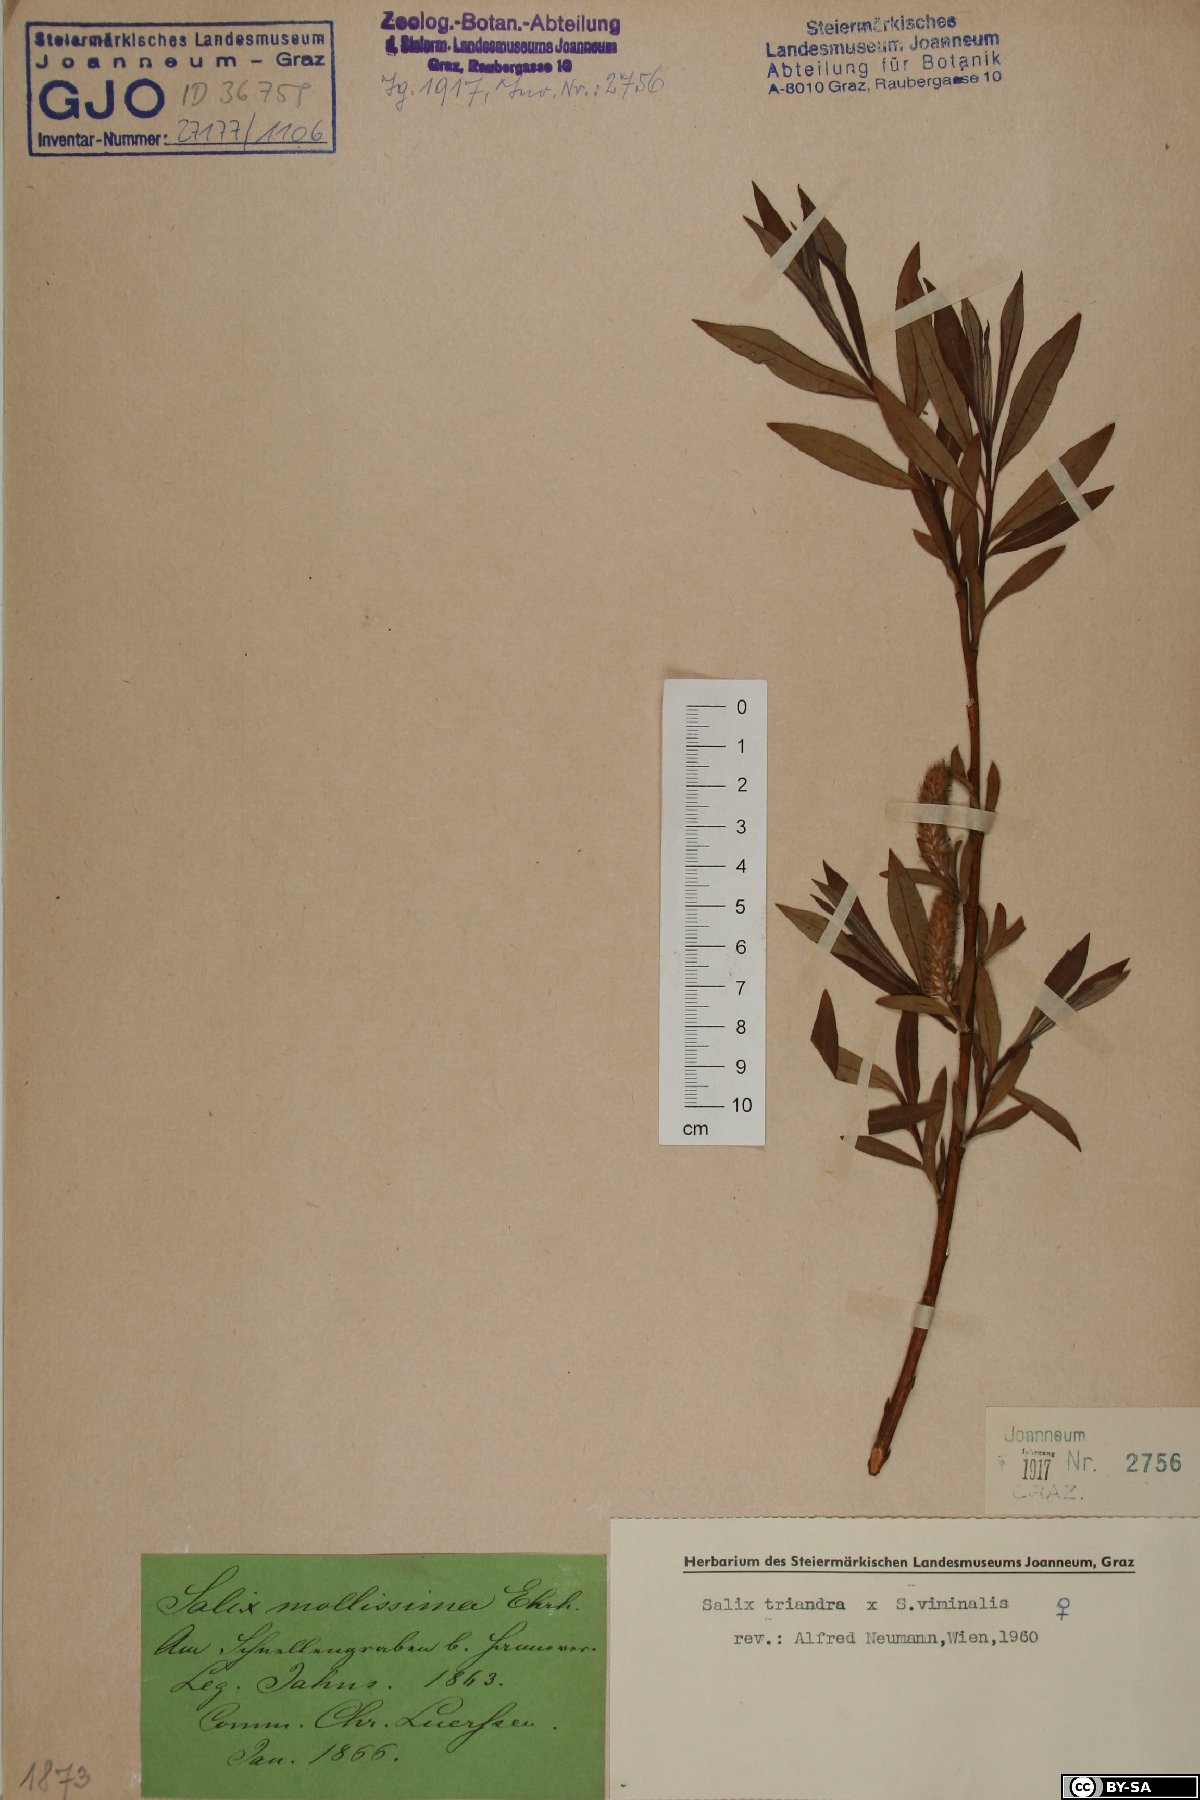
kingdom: Plantae
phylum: Tracheophyta
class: Magnoliopsida
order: Malpighiales
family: Salicaceae
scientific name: Salicaceae
